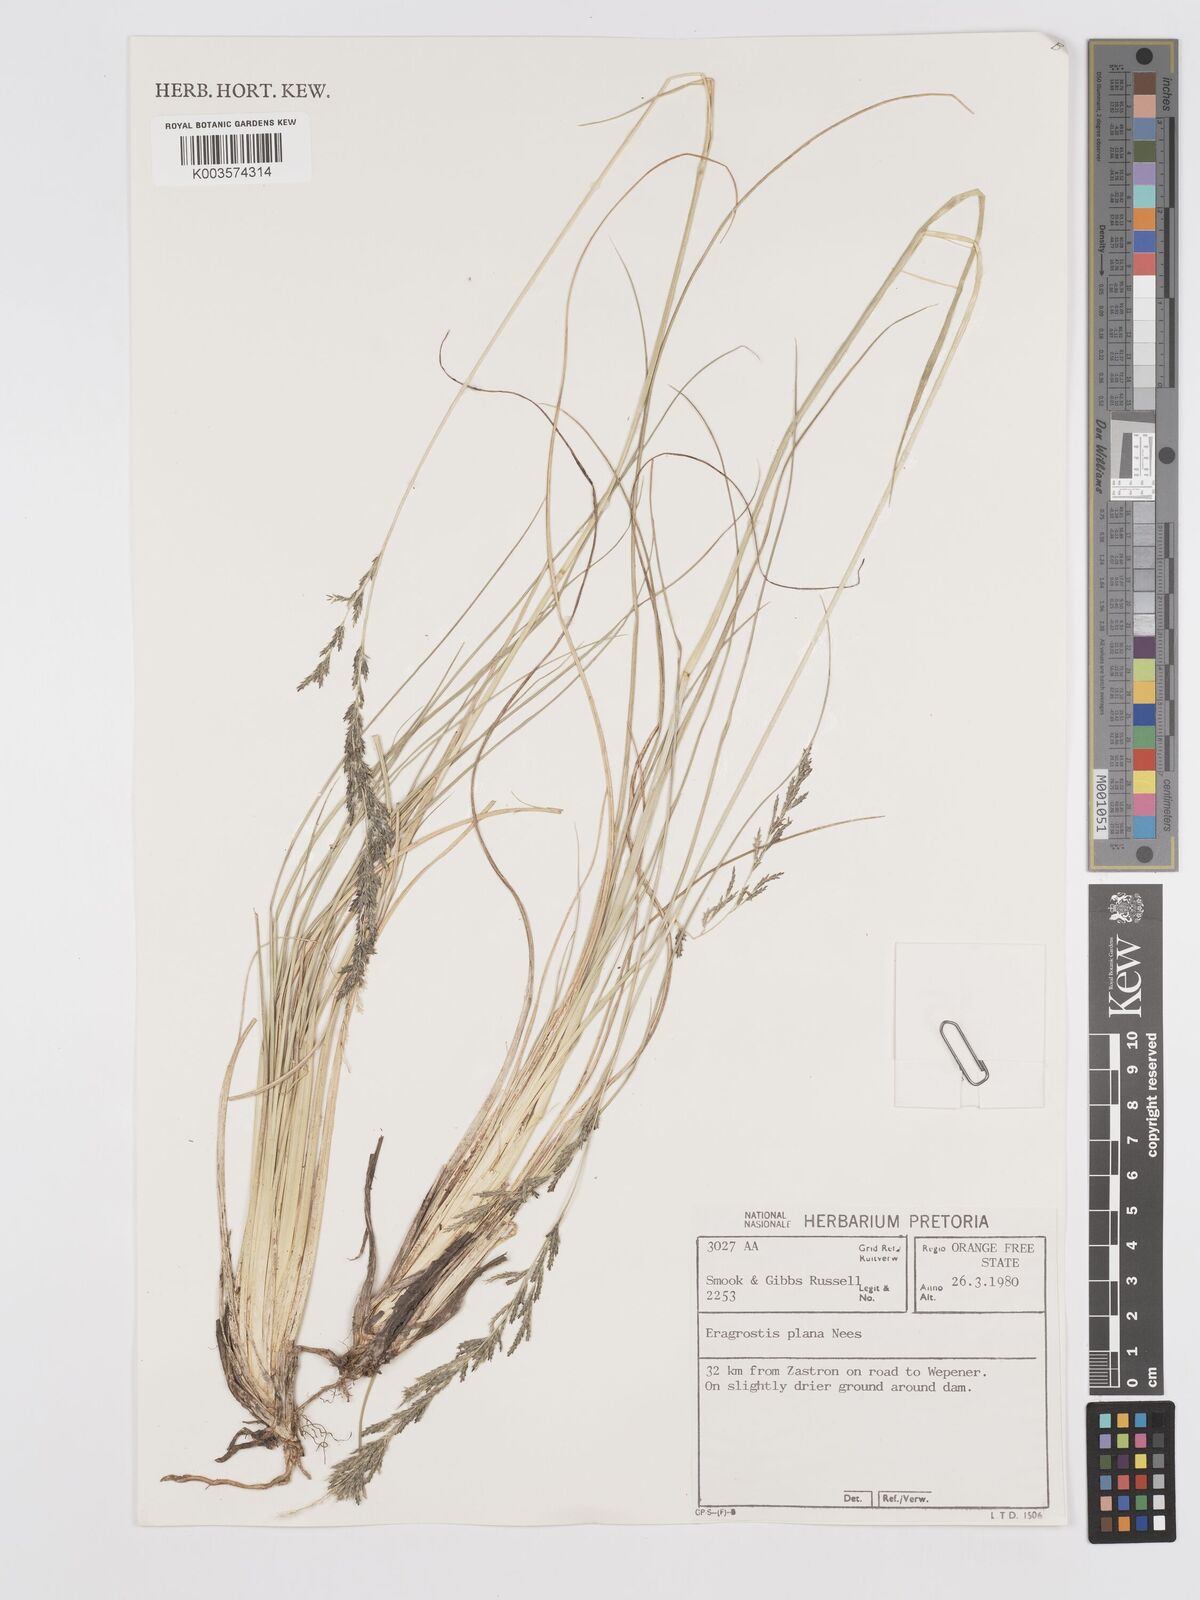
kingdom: Plantae
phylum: Tracheophyta
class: Liliopsida
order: Poales
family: Poaceae
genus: Eragrostis
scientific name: Eragrostis plana
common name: South african lovegrass
